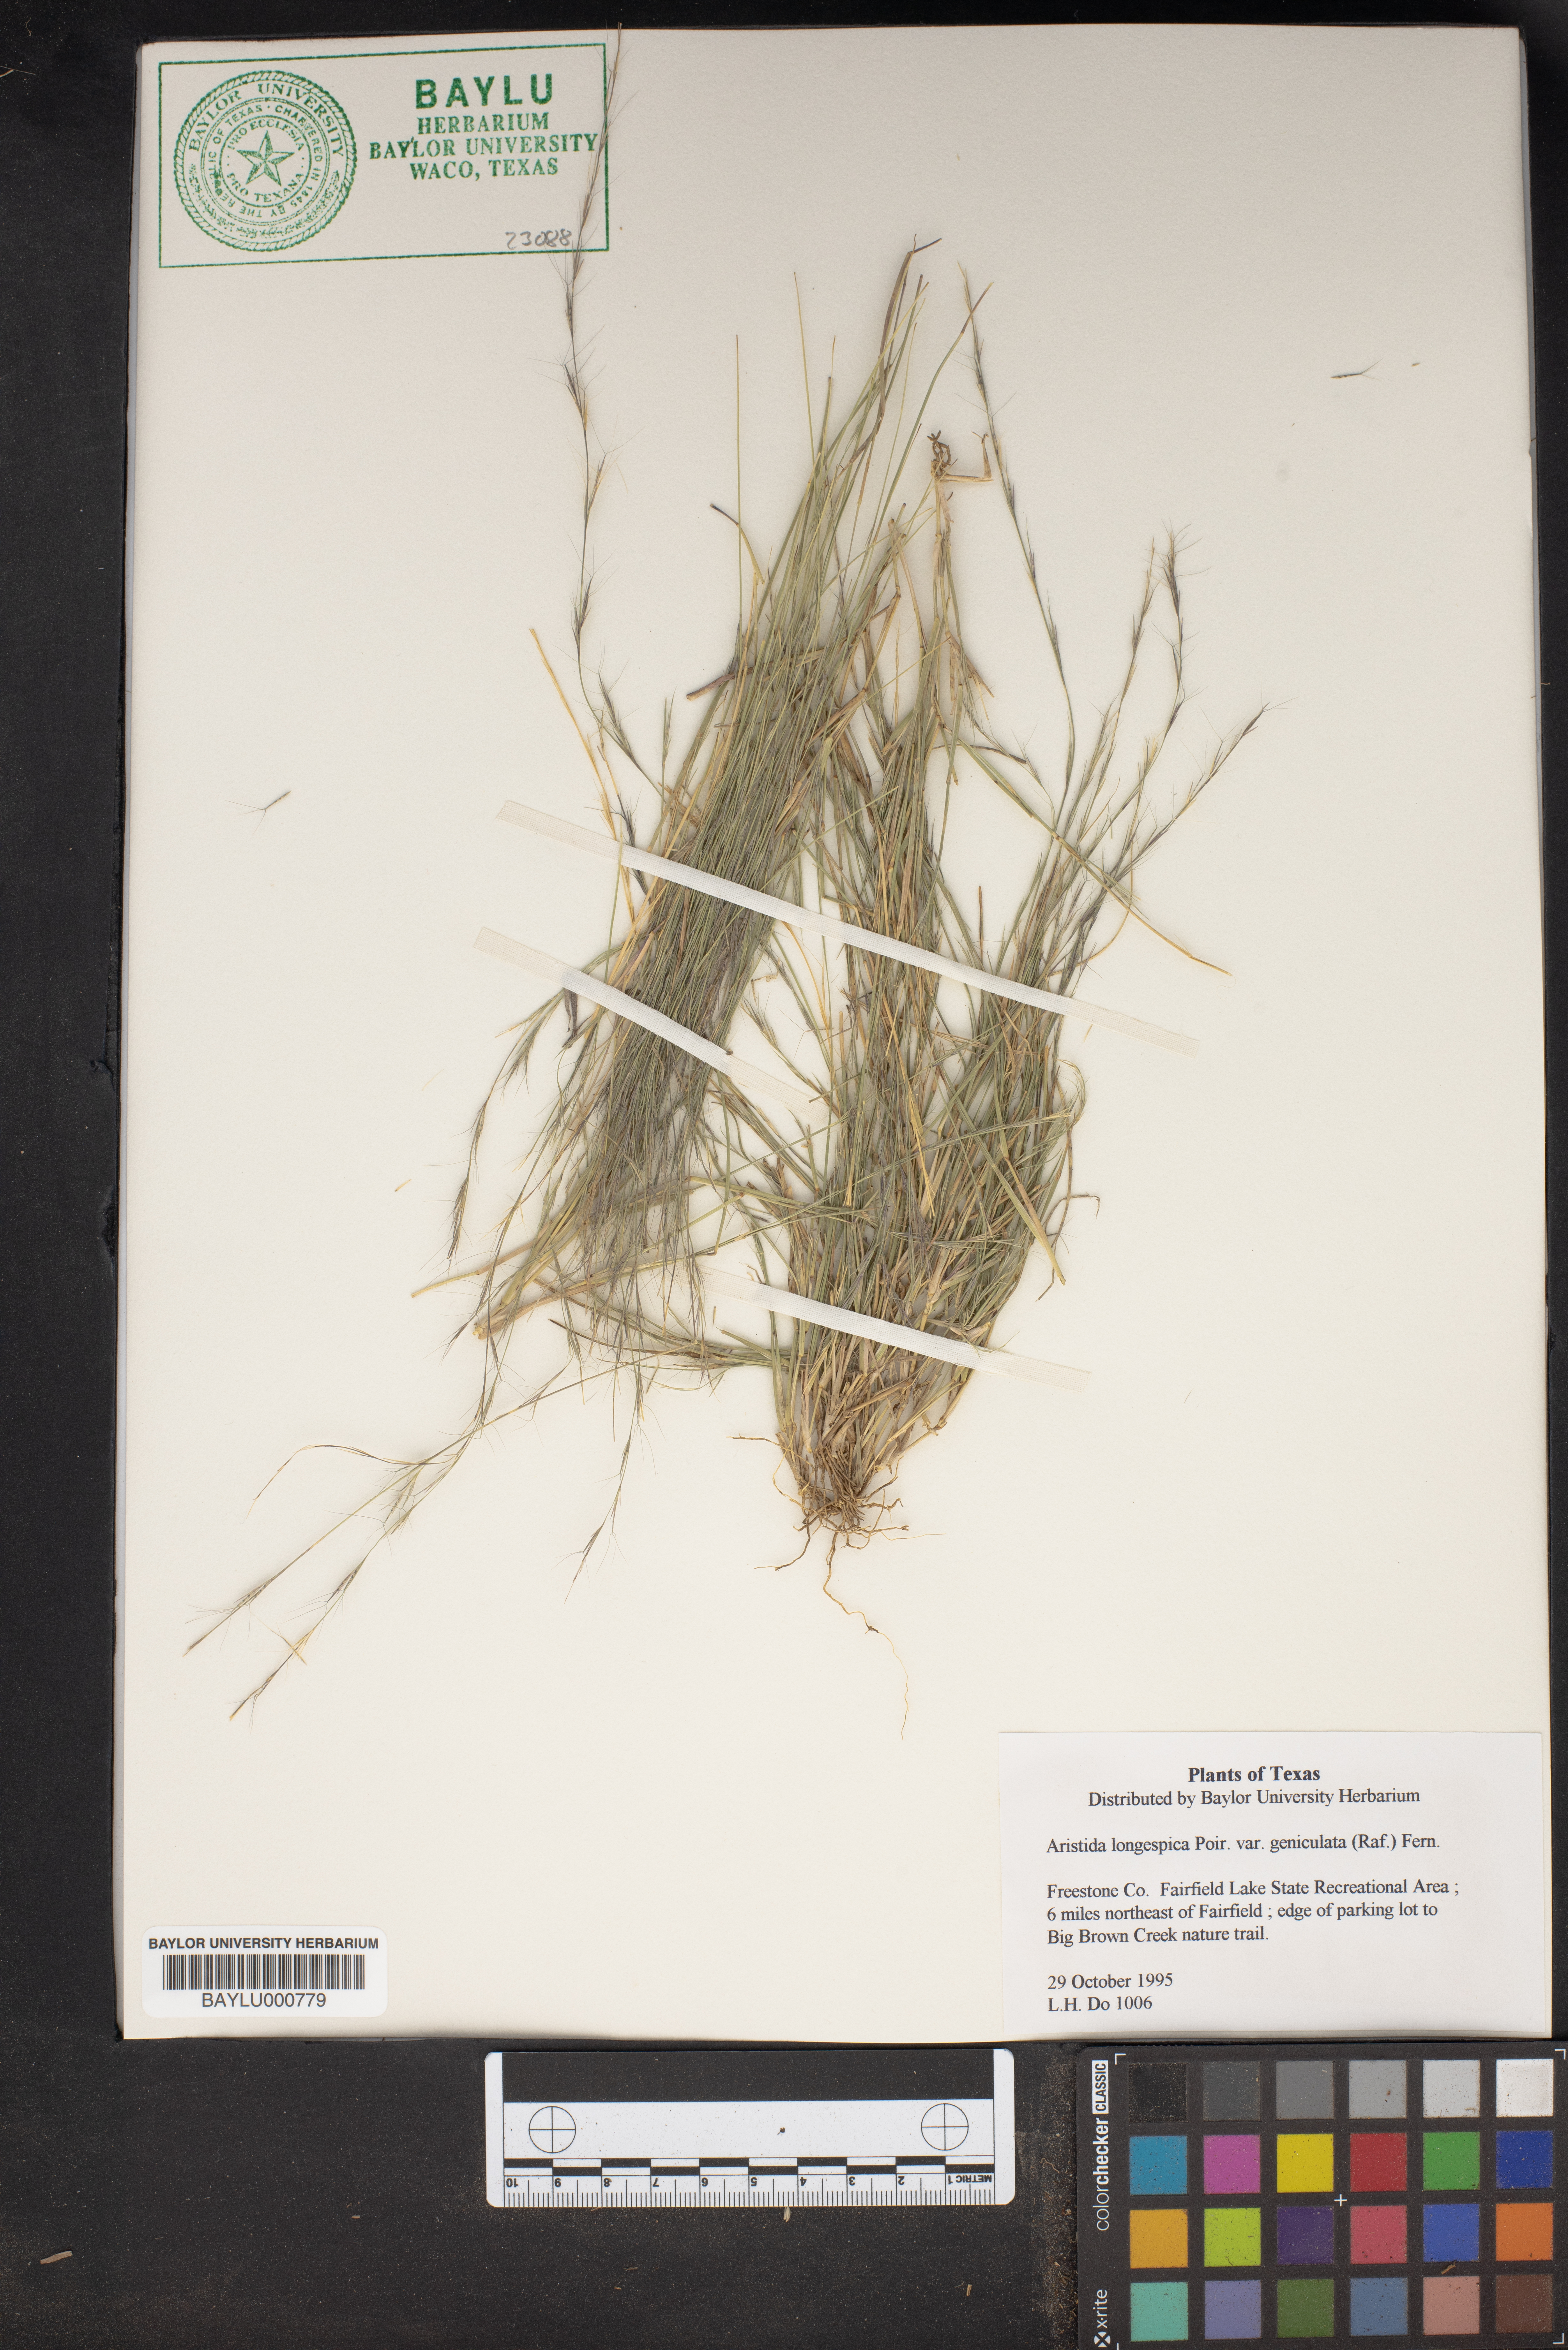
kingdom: Plantae
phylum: Tracheophyta
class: Liliopsida
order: Poales
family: Poaceae
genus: Aristida
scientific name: Aristida longespica
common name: Long-spiked triple-awned grass
